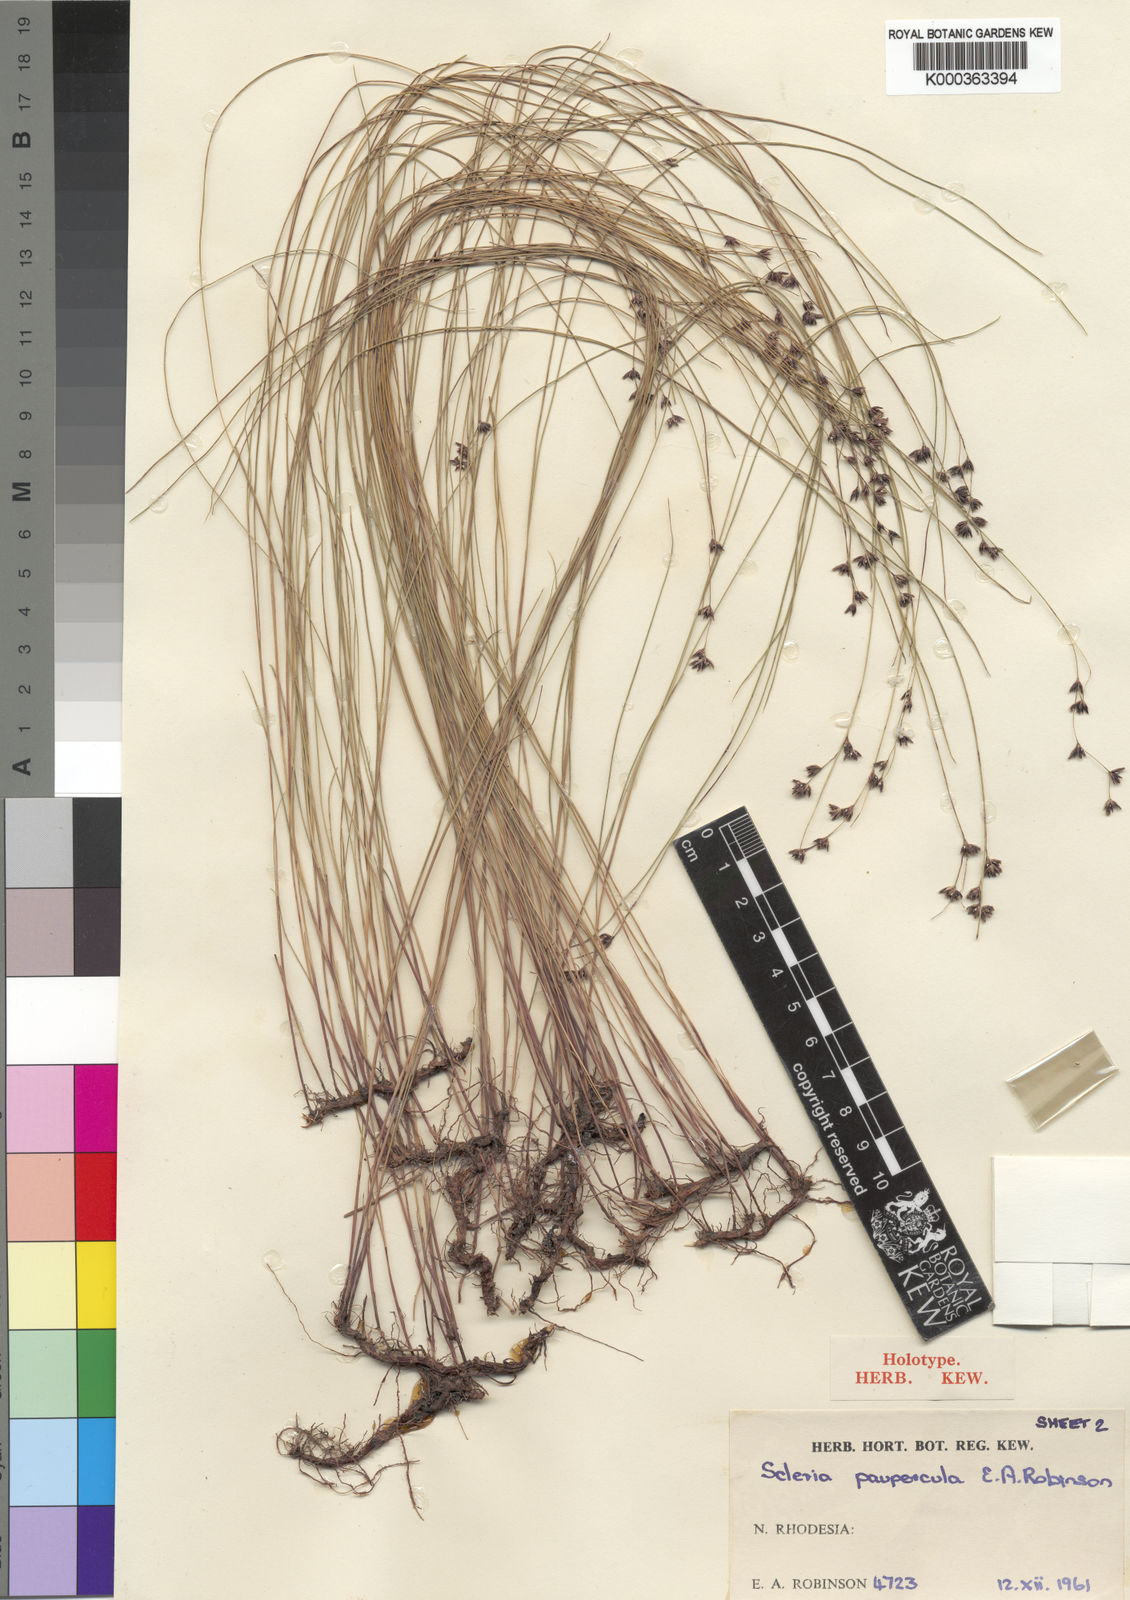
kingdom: Plantae
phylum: Tracheophyta
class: Liliopsida
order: Poales
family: Cyperaceae
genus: Scleria
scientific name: Scleria paupercula
